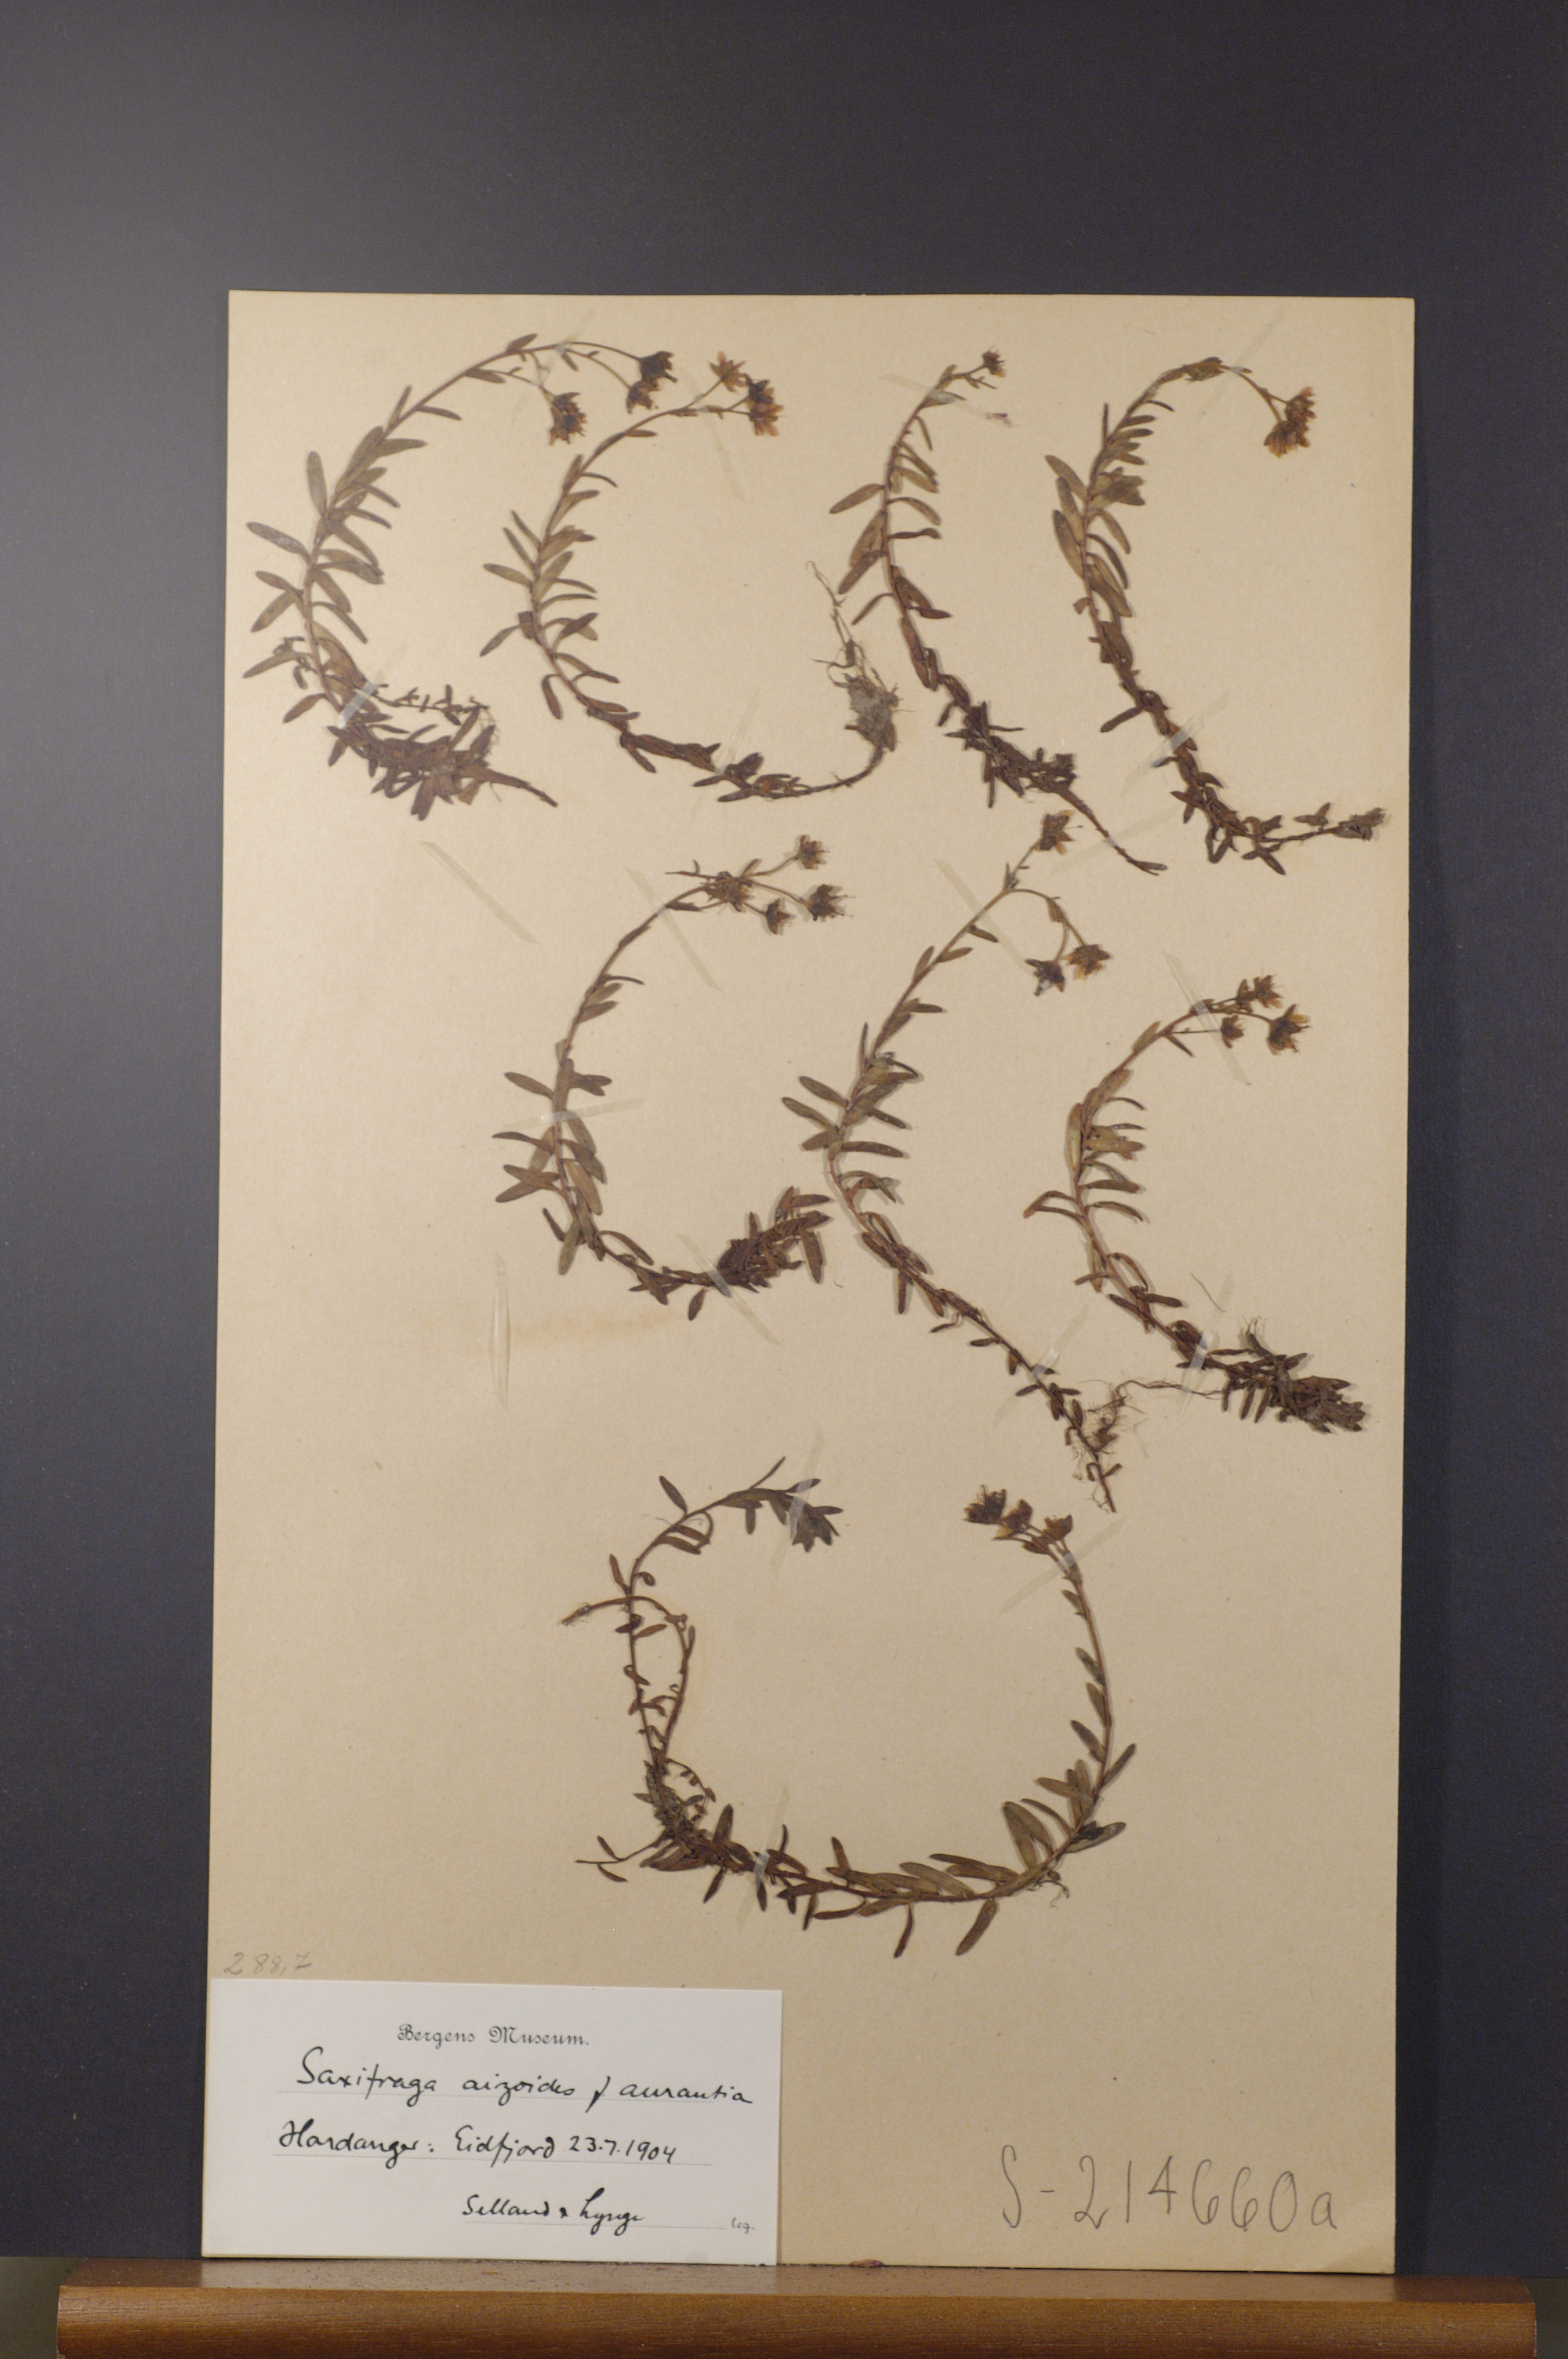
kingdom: Plantae
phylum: Tracheophyta
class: Magnoliopsida
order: Saxifragales
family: Saxifragaceae
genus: Saxifraga
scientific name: Saxifraga aizoides
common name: Yellow mountain saxifrage
